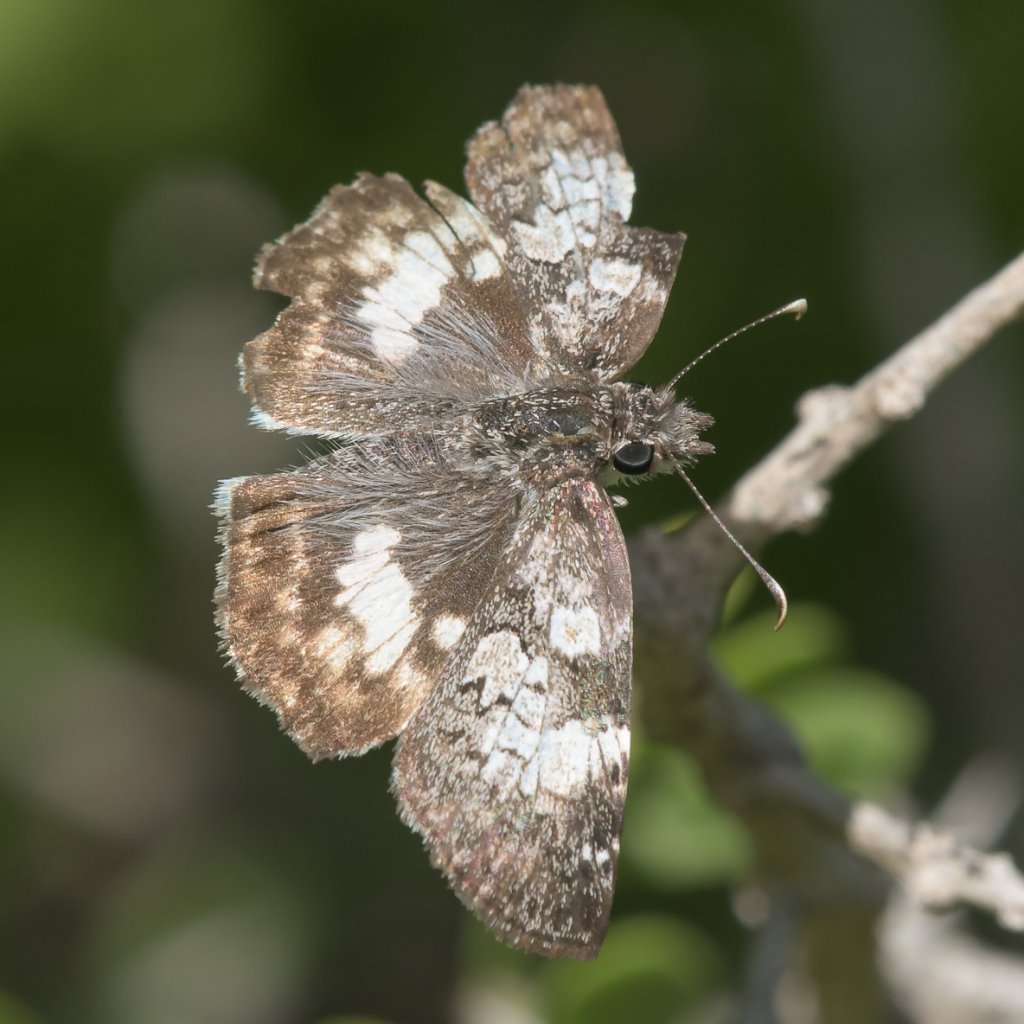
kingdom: Animalia
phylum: Arthropoda
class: Insecta
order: Lepidoptera
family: Hesperiidae
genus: Chiomara
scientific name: Chiomara asychis
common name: White-patched Skipper
